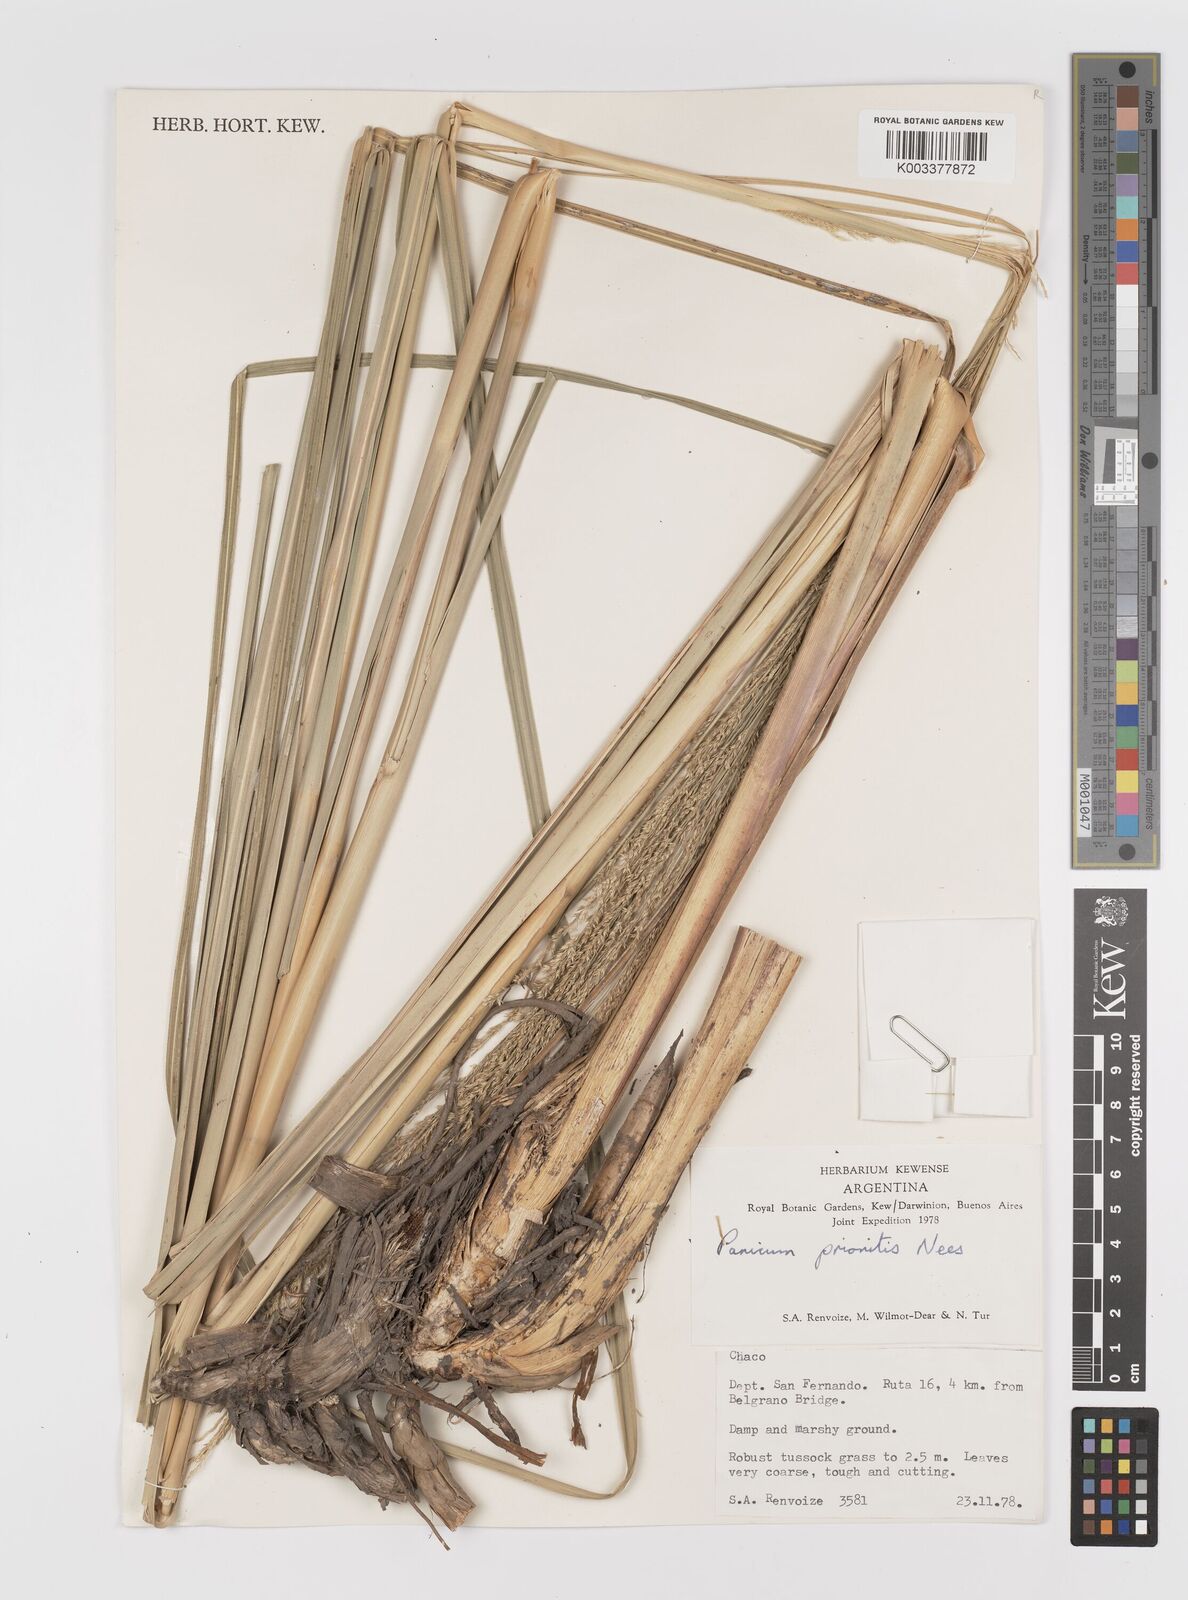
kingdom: Plantae
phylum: Tracheophyta
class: Liliopsida
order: Poales
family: Poaceae
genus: Coleataenia
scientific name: Coleataenia prionitis
